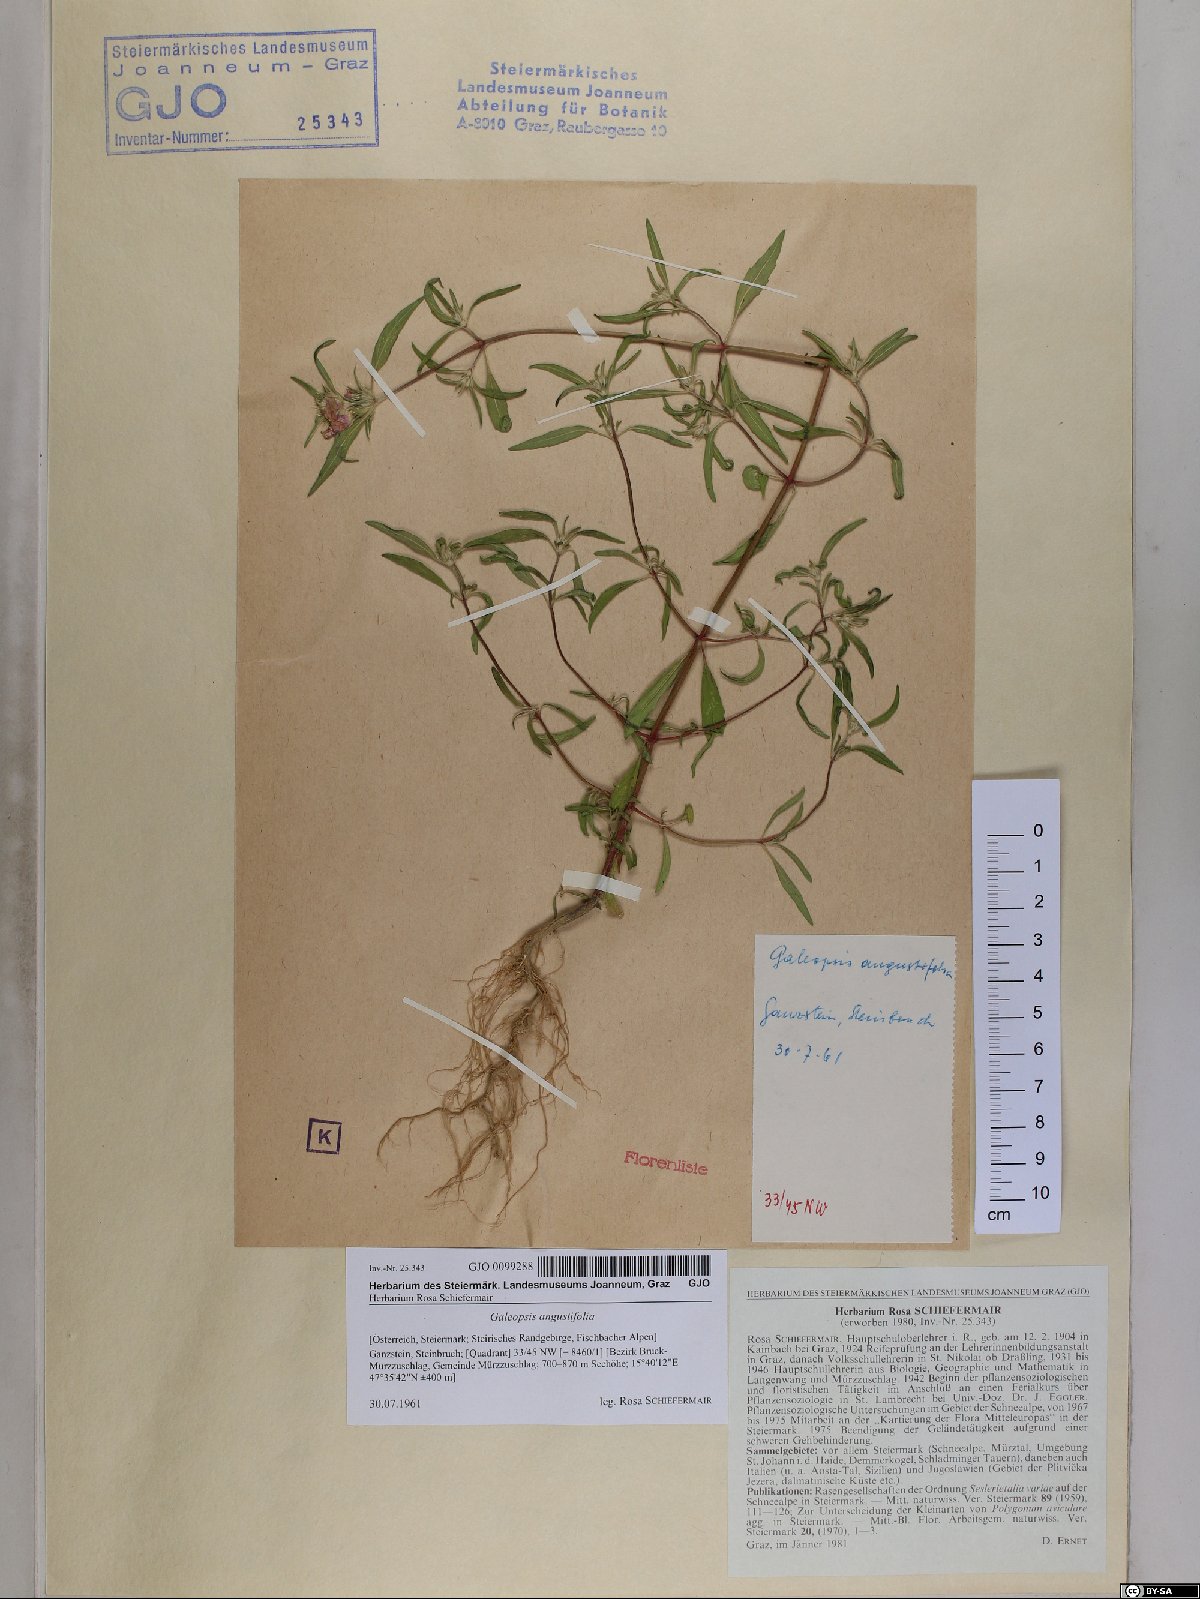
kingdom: Plantae
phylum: Tracheophyta
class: Magnoliopsida
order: Lamiales
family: Lamiaceae
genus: Galeopsis
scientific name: Galeopsis angustifolia
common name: Red hemp-nettle
